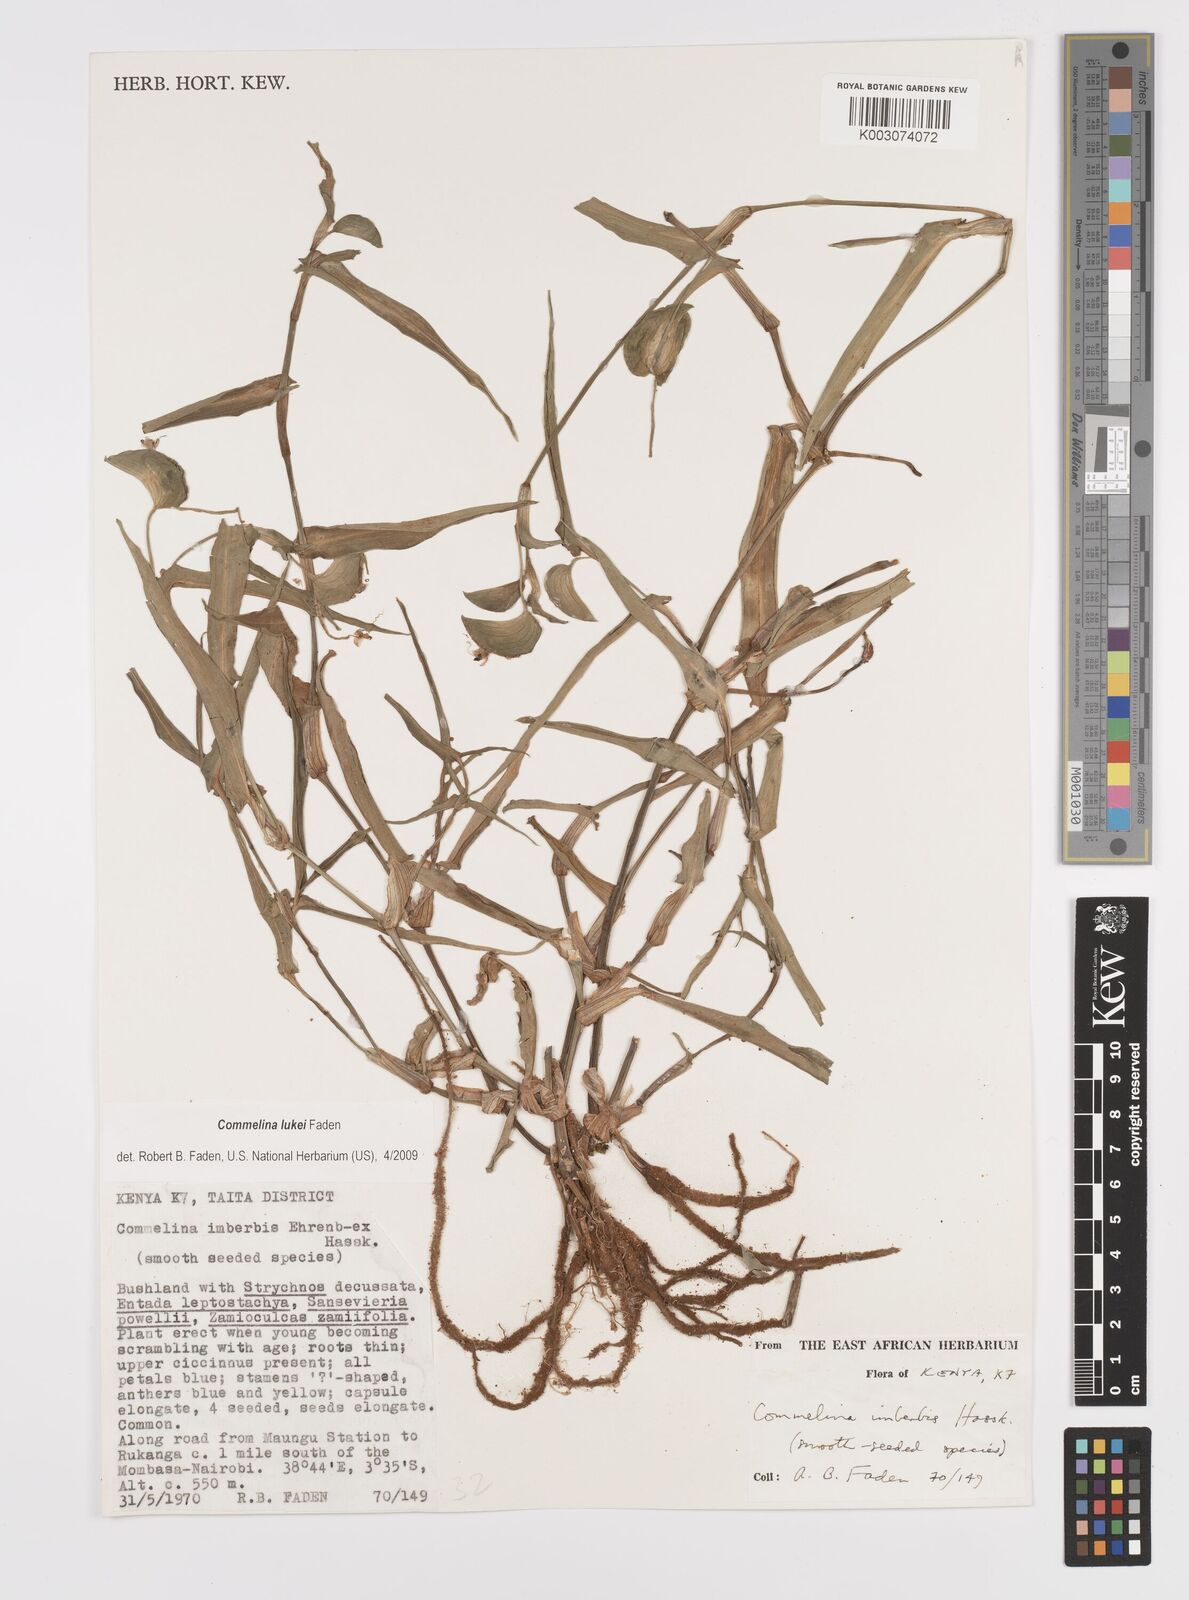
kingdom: Plantae
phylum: Tracheophyta
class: Liliopsida
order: Commelinales
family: Commelinaceae
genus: Commelina
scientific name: Commelina lukei
